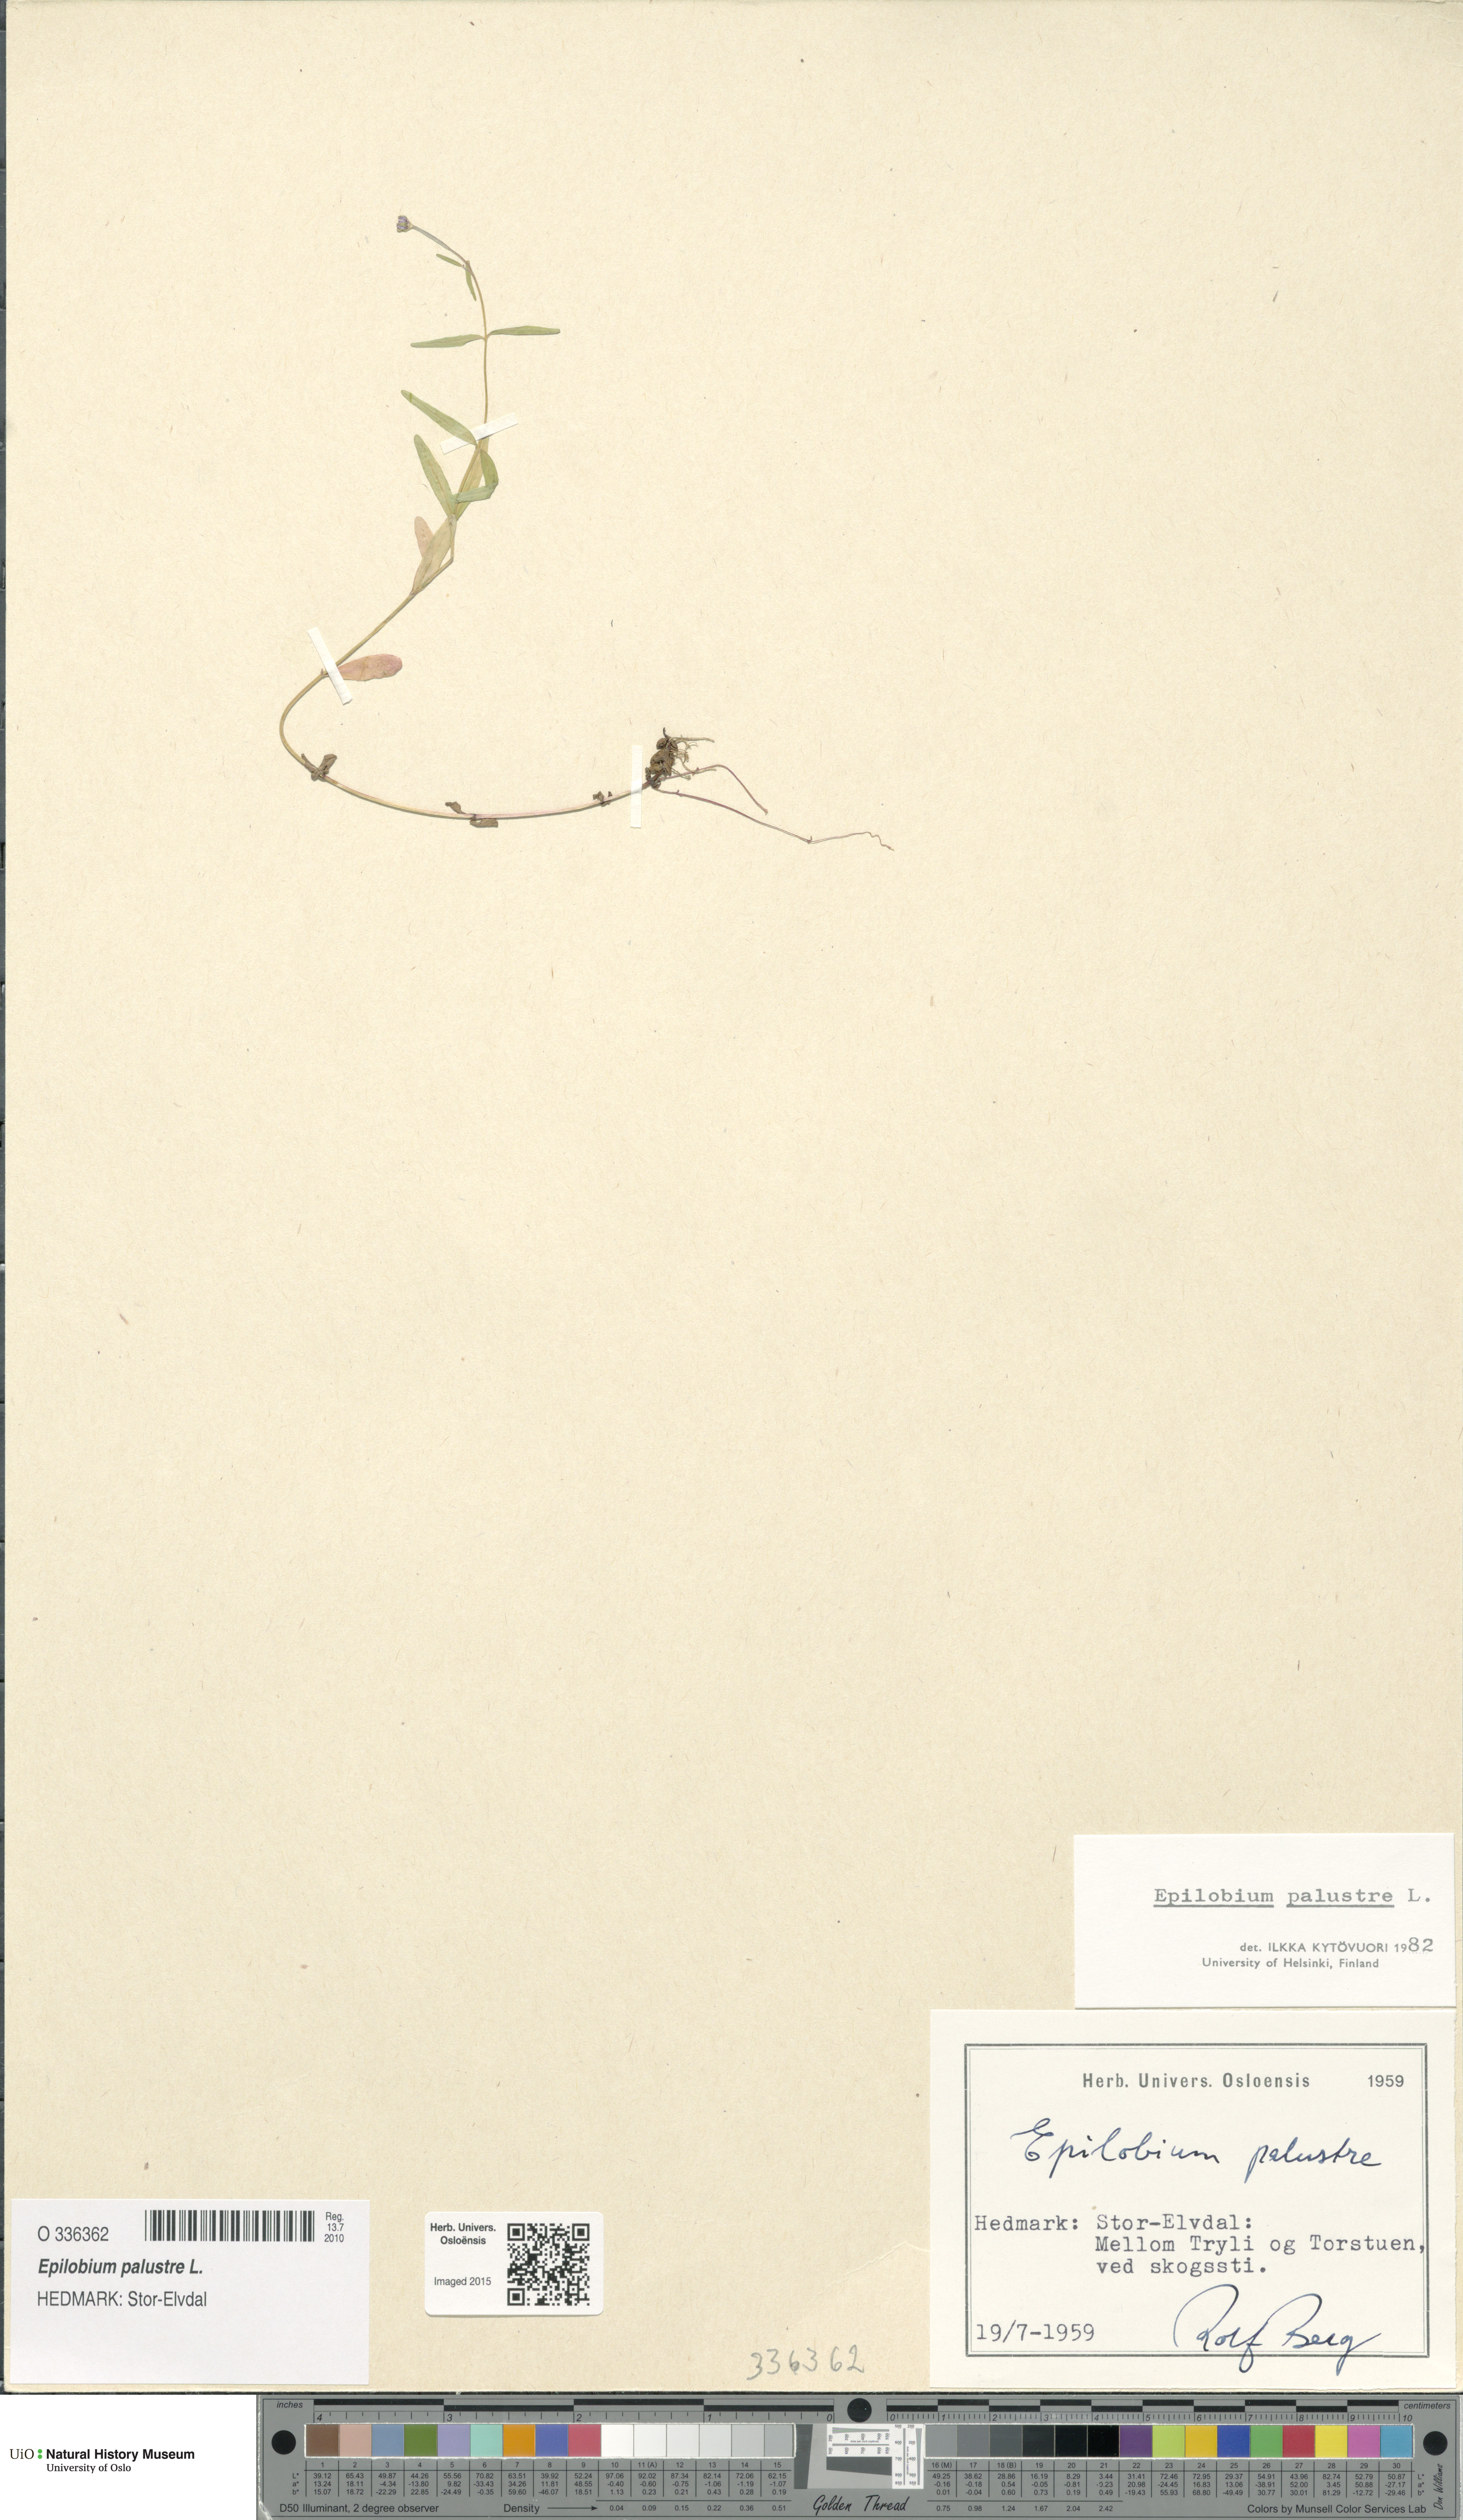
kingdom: Plantae
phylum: Tracheophyta
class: Magnoliopsida
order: Myrtales
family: Onagraceae
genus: Epilobium
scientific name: Epilobium palustre
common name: Marsh willowherb
